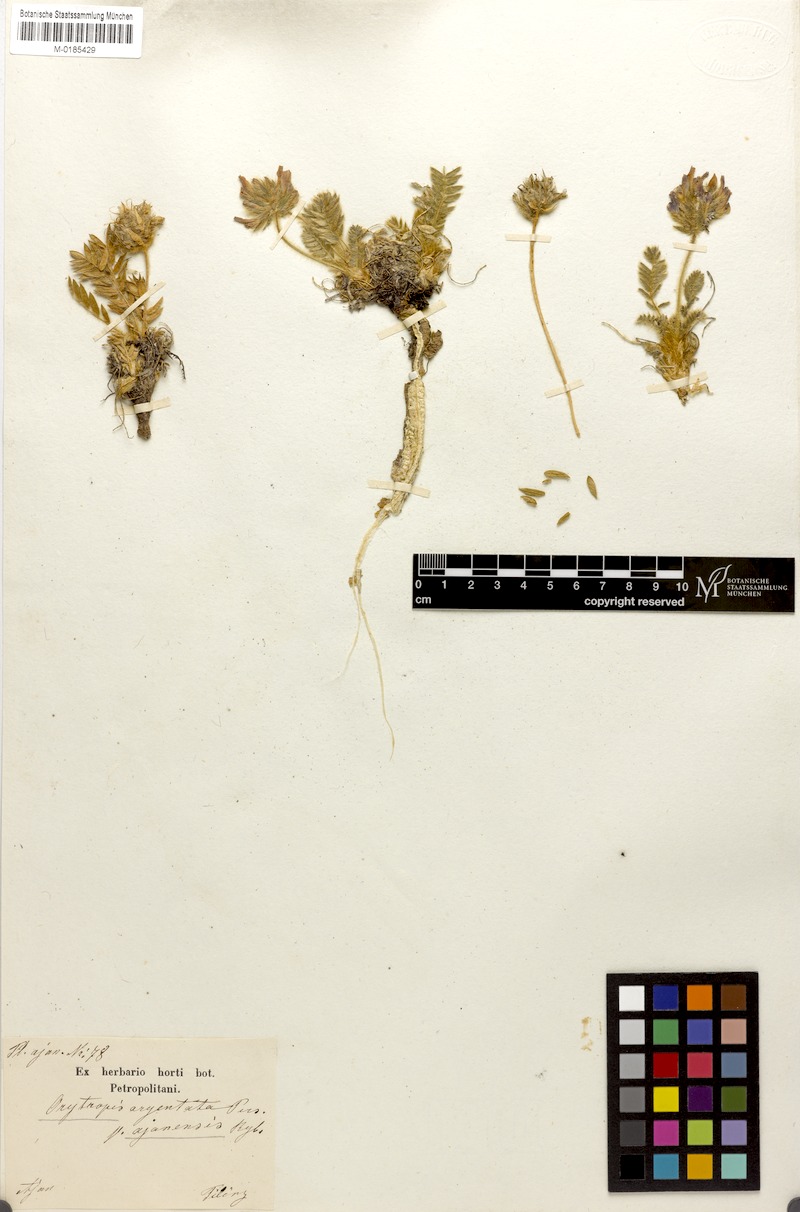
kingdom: Plantae
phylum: Tracheophyta
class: Magnoliopsida
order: Fabales
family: Fabaceae
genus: Oxytropis
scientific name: Oxytropis ajanensis
